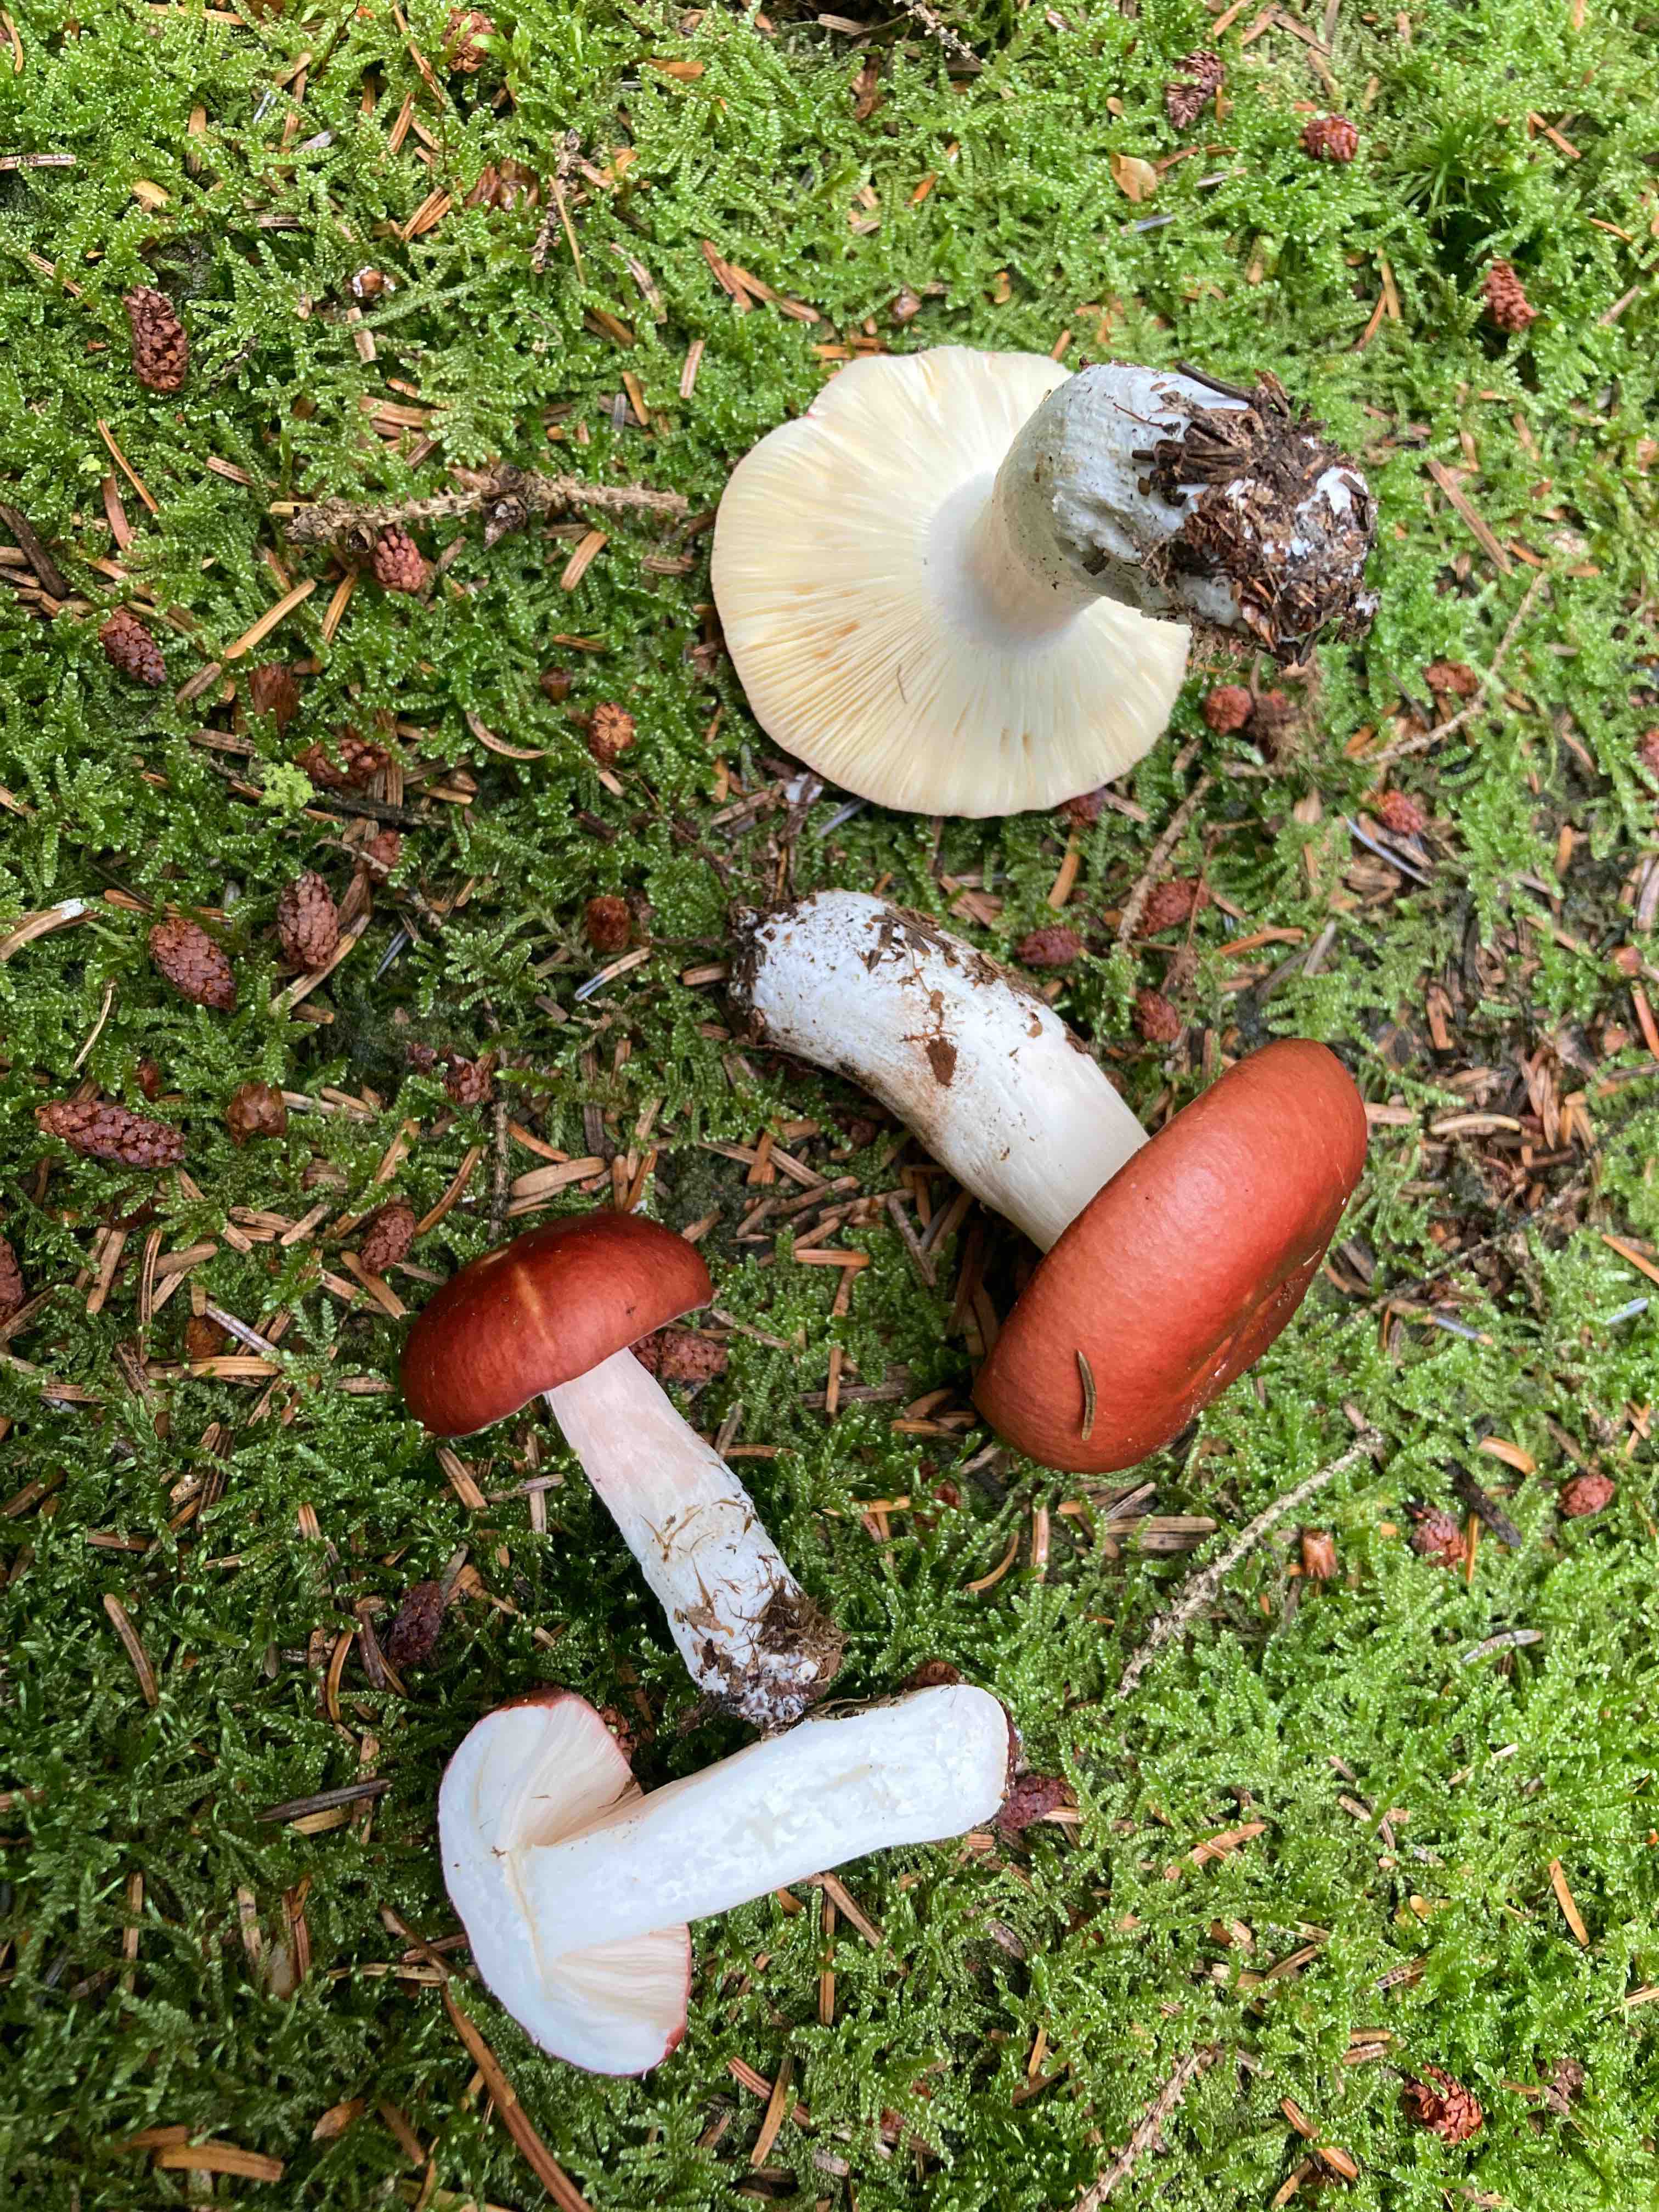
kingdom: Fungi
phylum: Basidiomycota
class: Agaricomycetes
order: Russulales
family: Russulaceae
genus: Russula
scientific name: Russula paludosa
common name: prægtig skørhat
